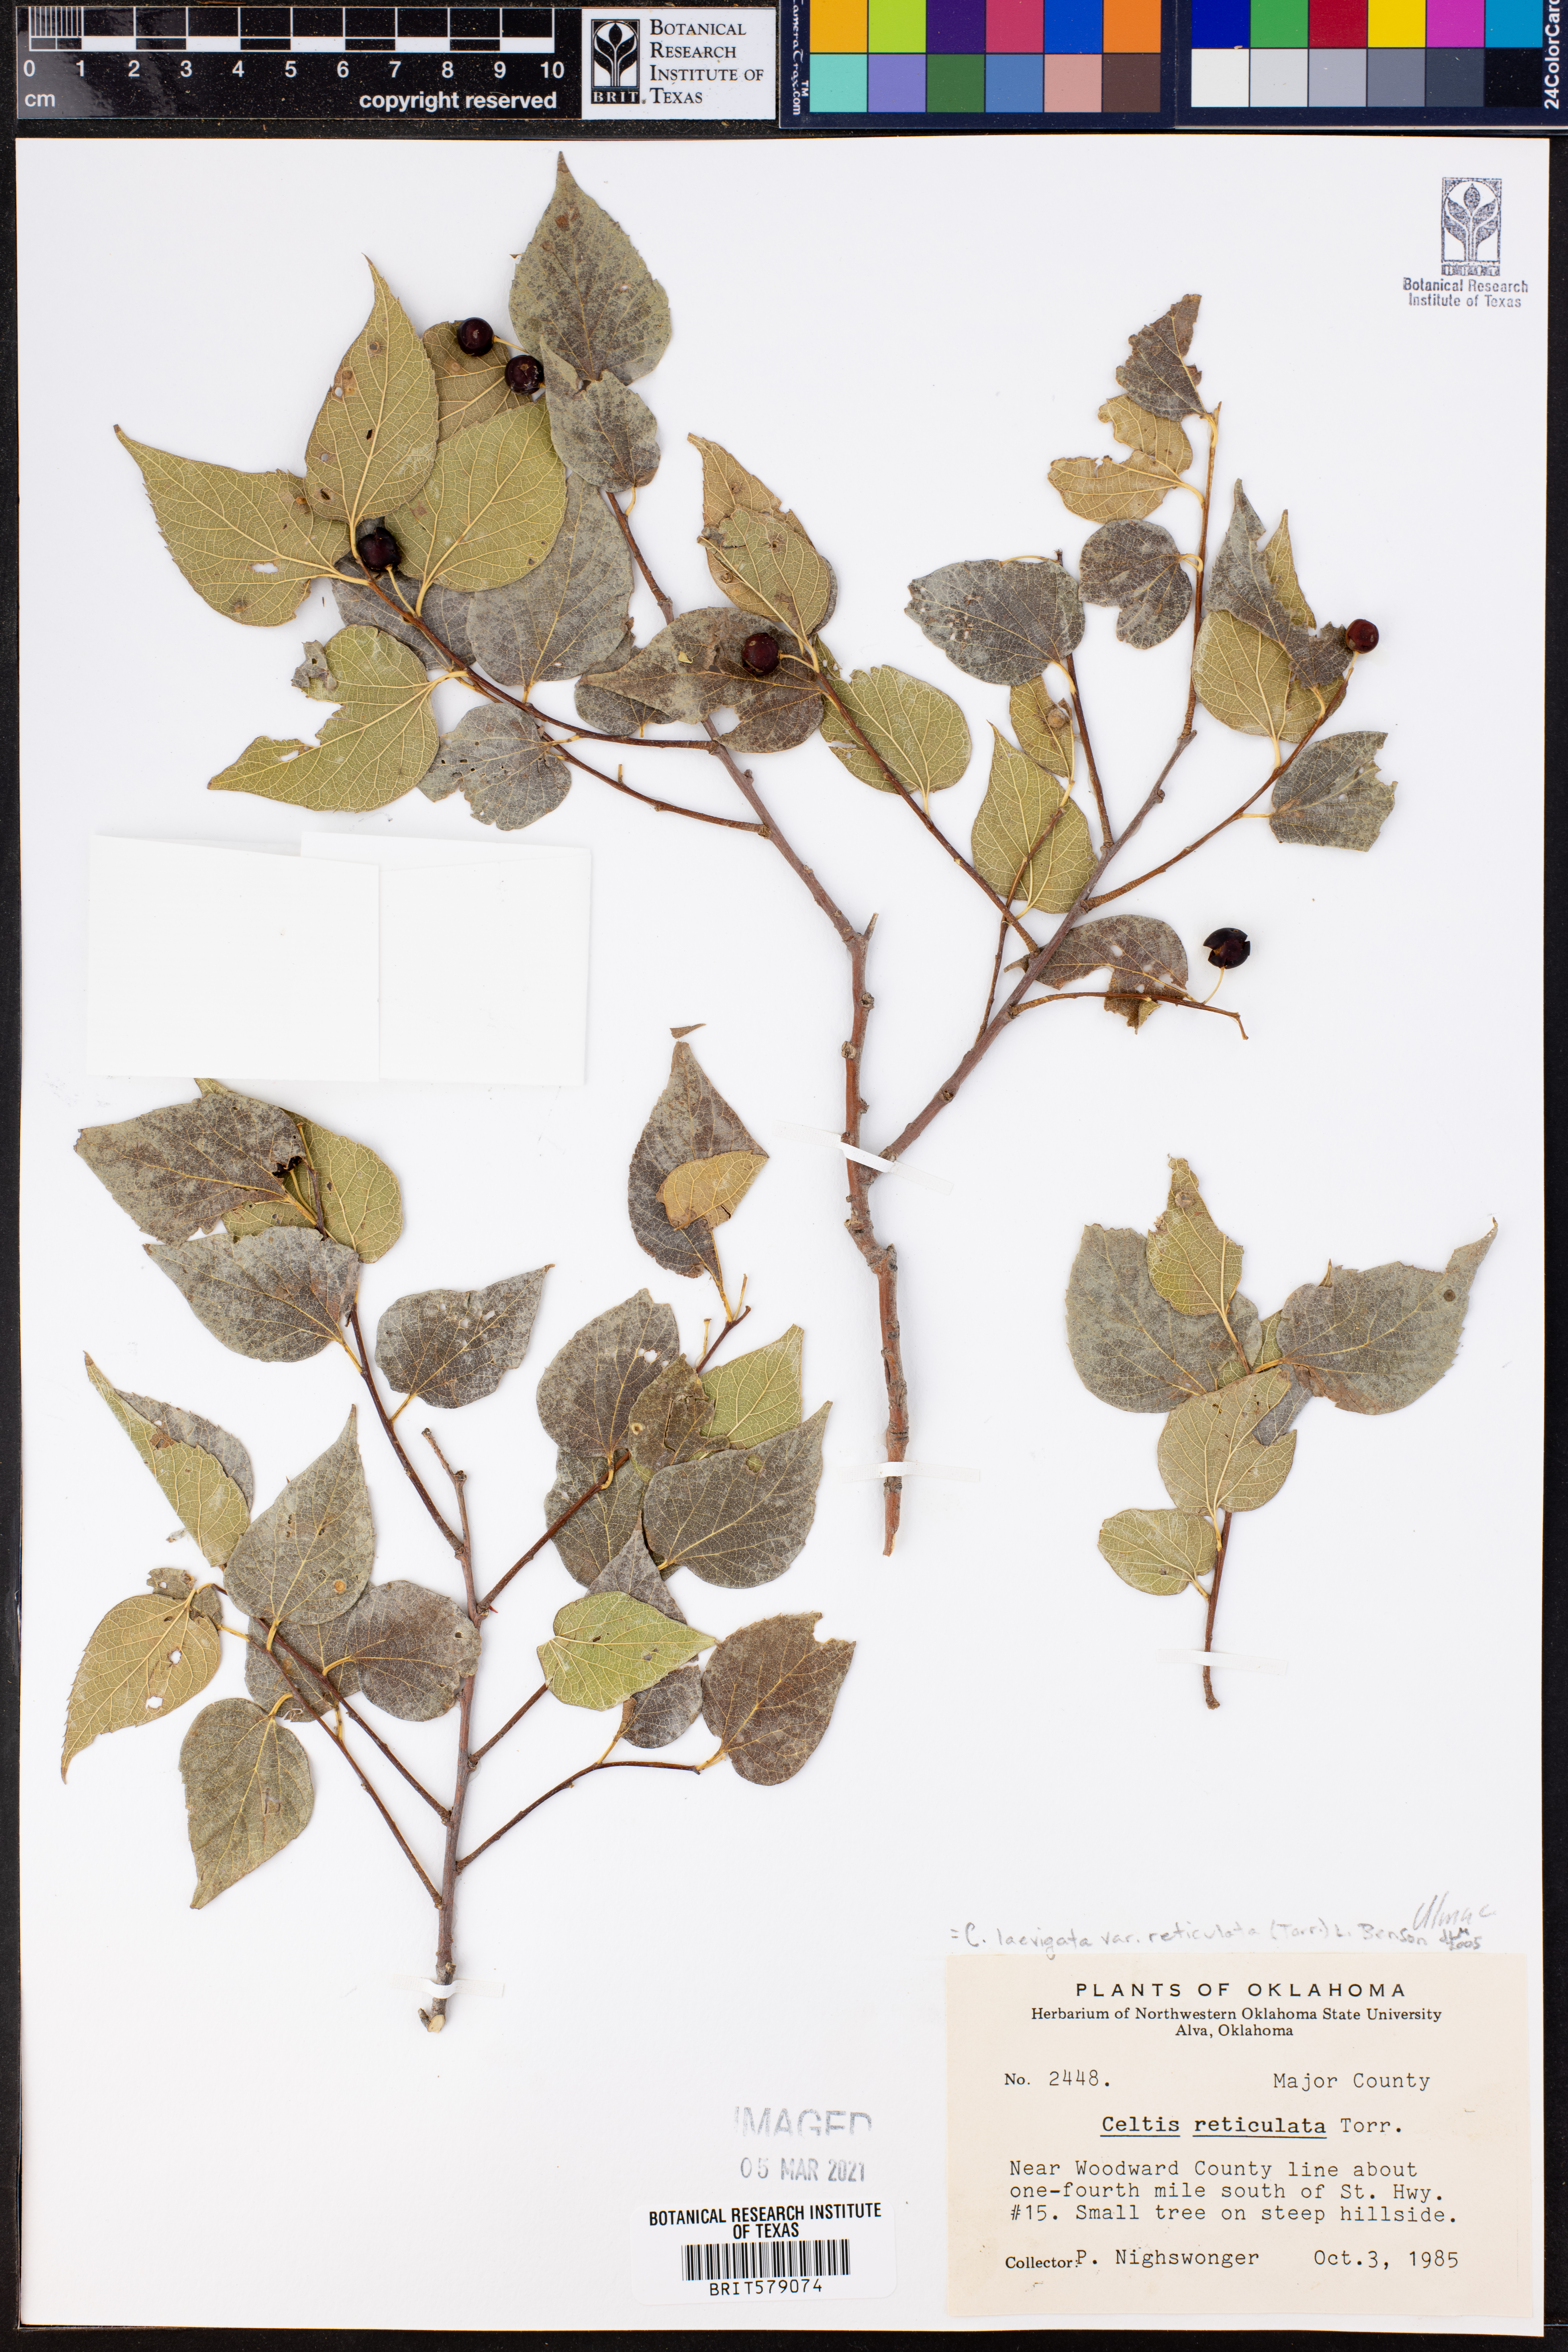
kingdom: Plantae
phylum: Tracheophyta
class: Magnoliopsida
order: Rosales
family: Cannabaceae
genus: Celtis
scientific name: Celtis reticulata
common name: Netleaf hackberry
